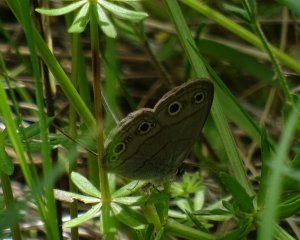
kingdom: Animalia
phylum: Arthropoda
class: Insecta
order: Lepidoptera
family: Nymphalidae
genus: Euptychia
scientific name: Euptychia cymela
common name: Little Wood Satyr
